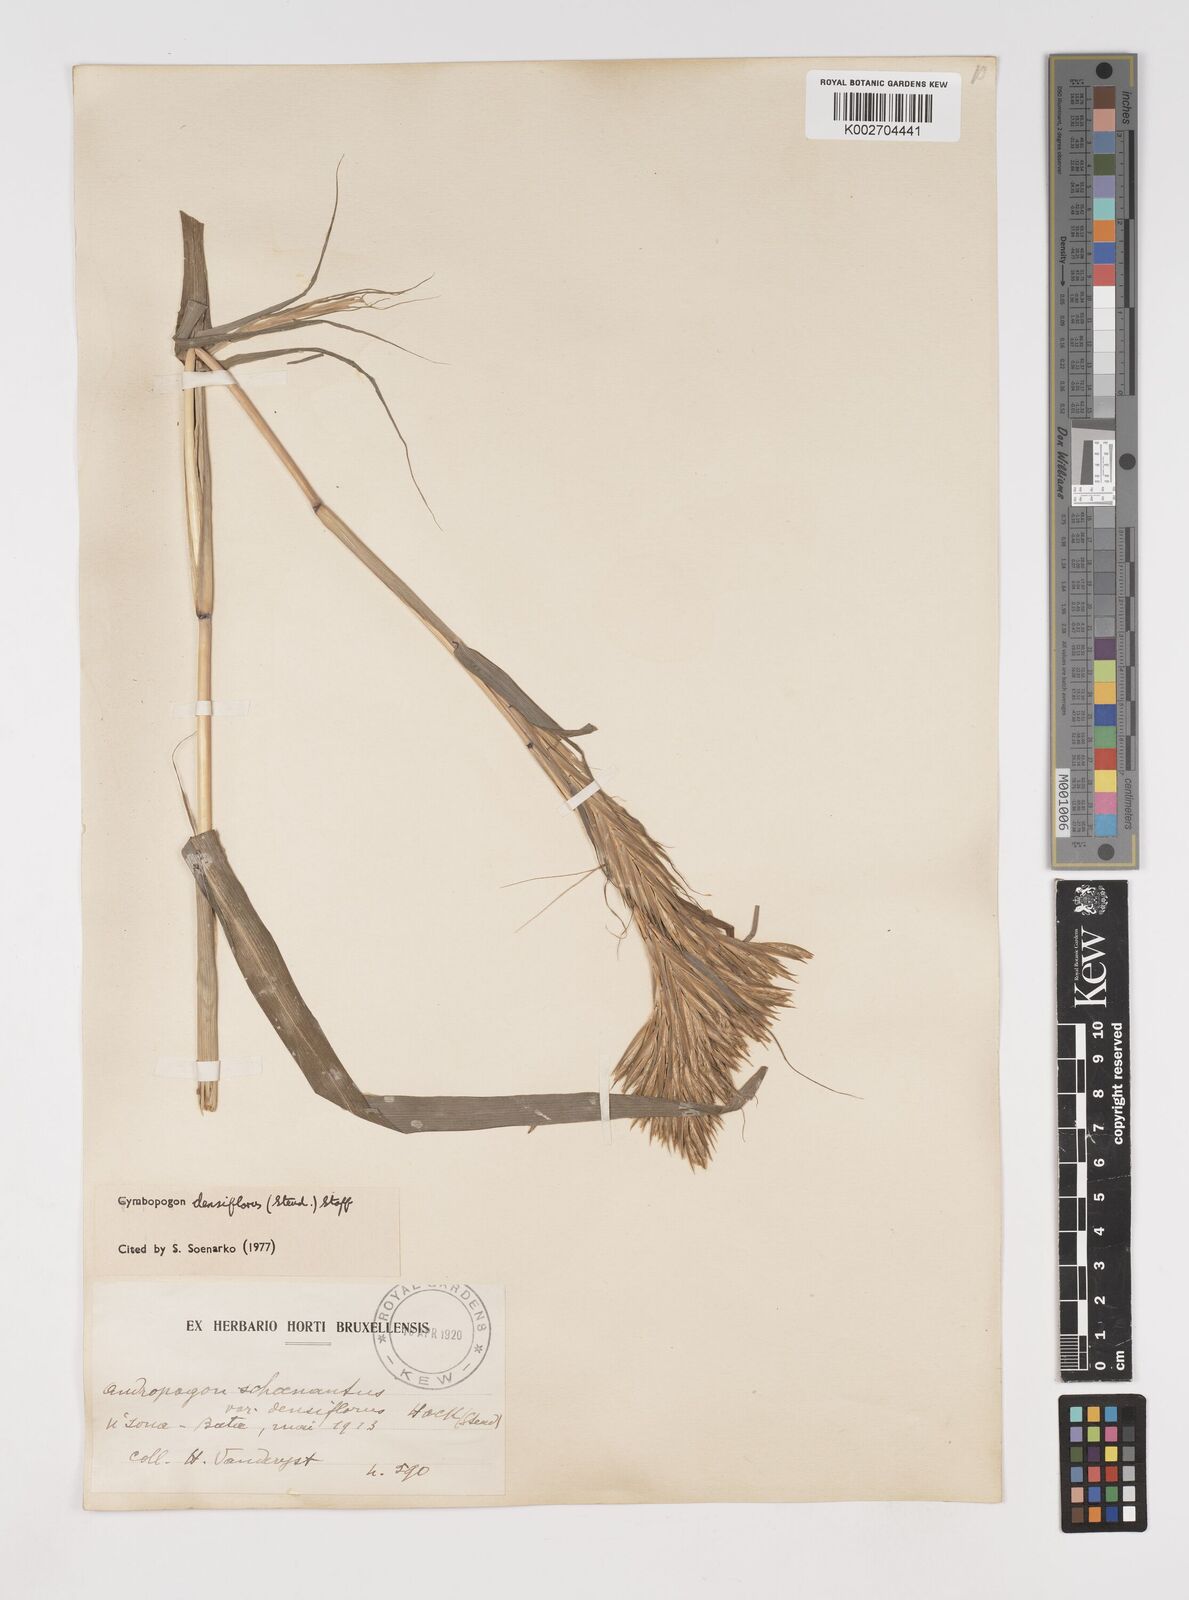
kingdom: Plantae
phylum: Tracheophyta
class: Liliopsida
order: Poales
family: Poaceae
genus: Cymbopogon
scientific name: Cymbopogon densiflorus
